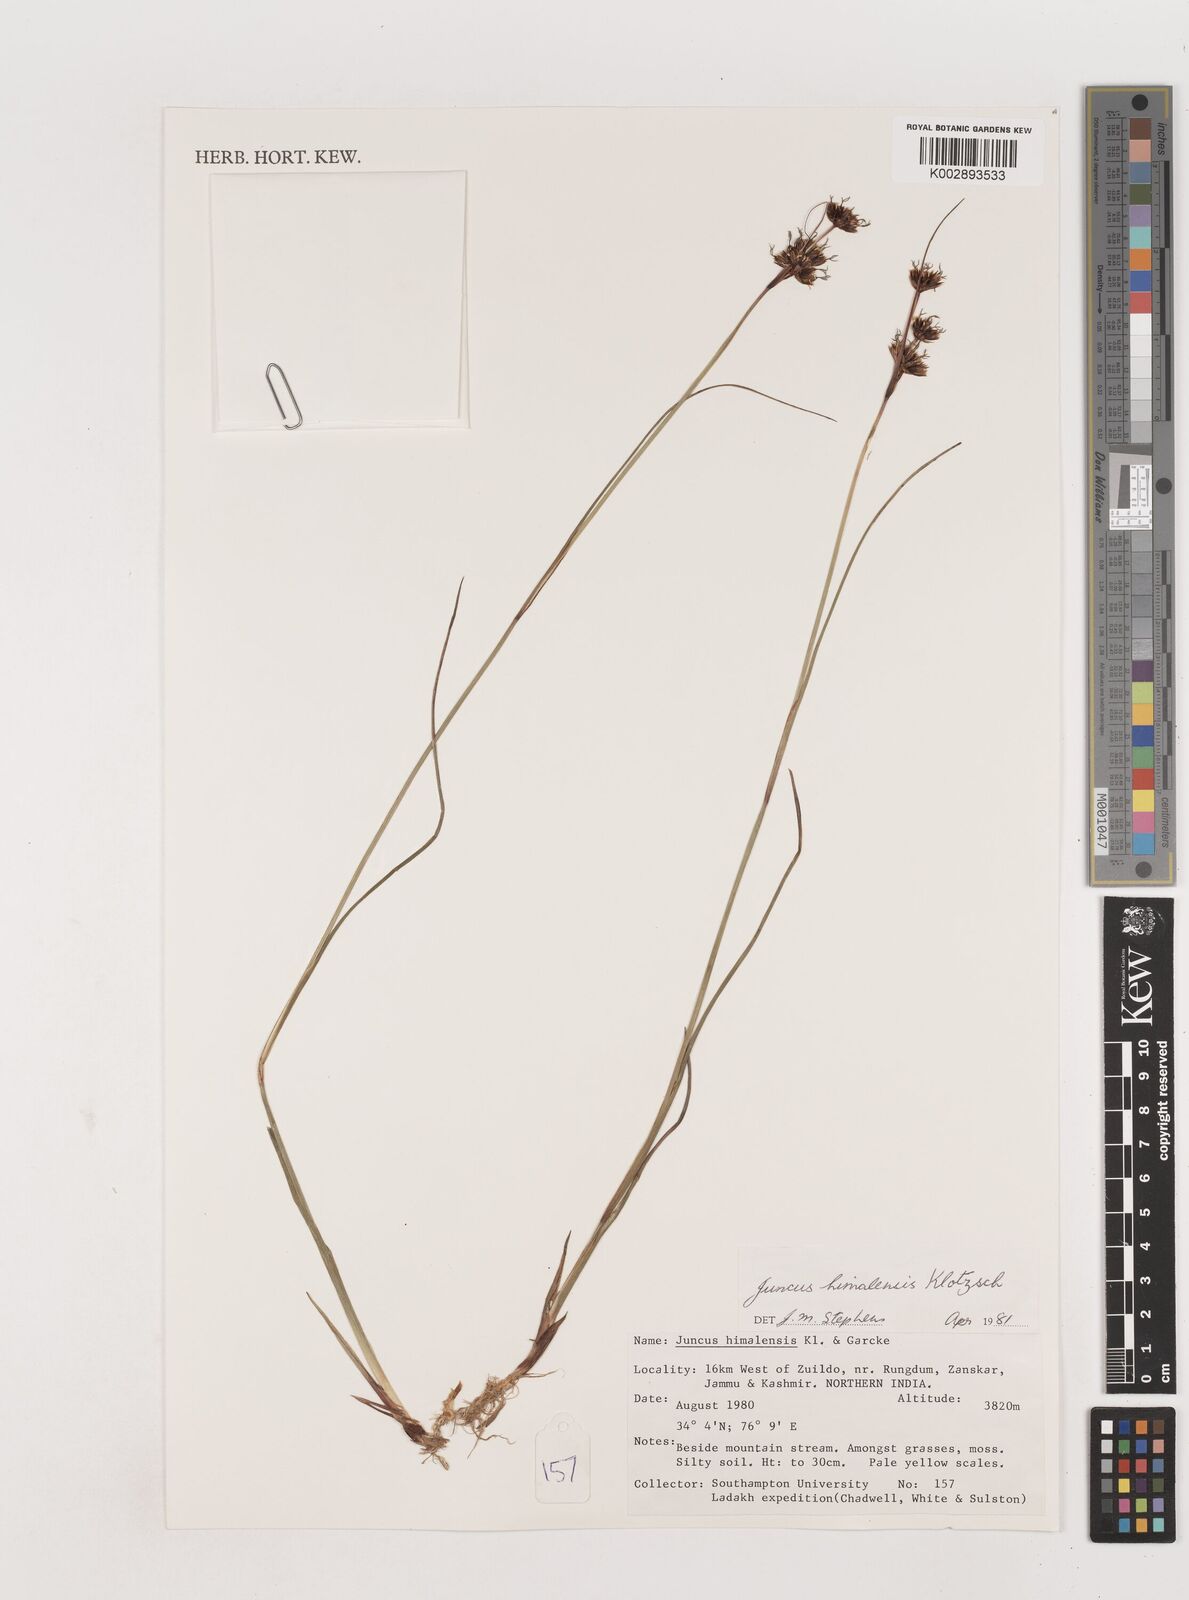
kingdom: Plantae
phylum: Tracheophyta
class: Liliopsida
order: Poales
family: Juncaceae
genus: Juncus
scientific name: Juncus himalensis
